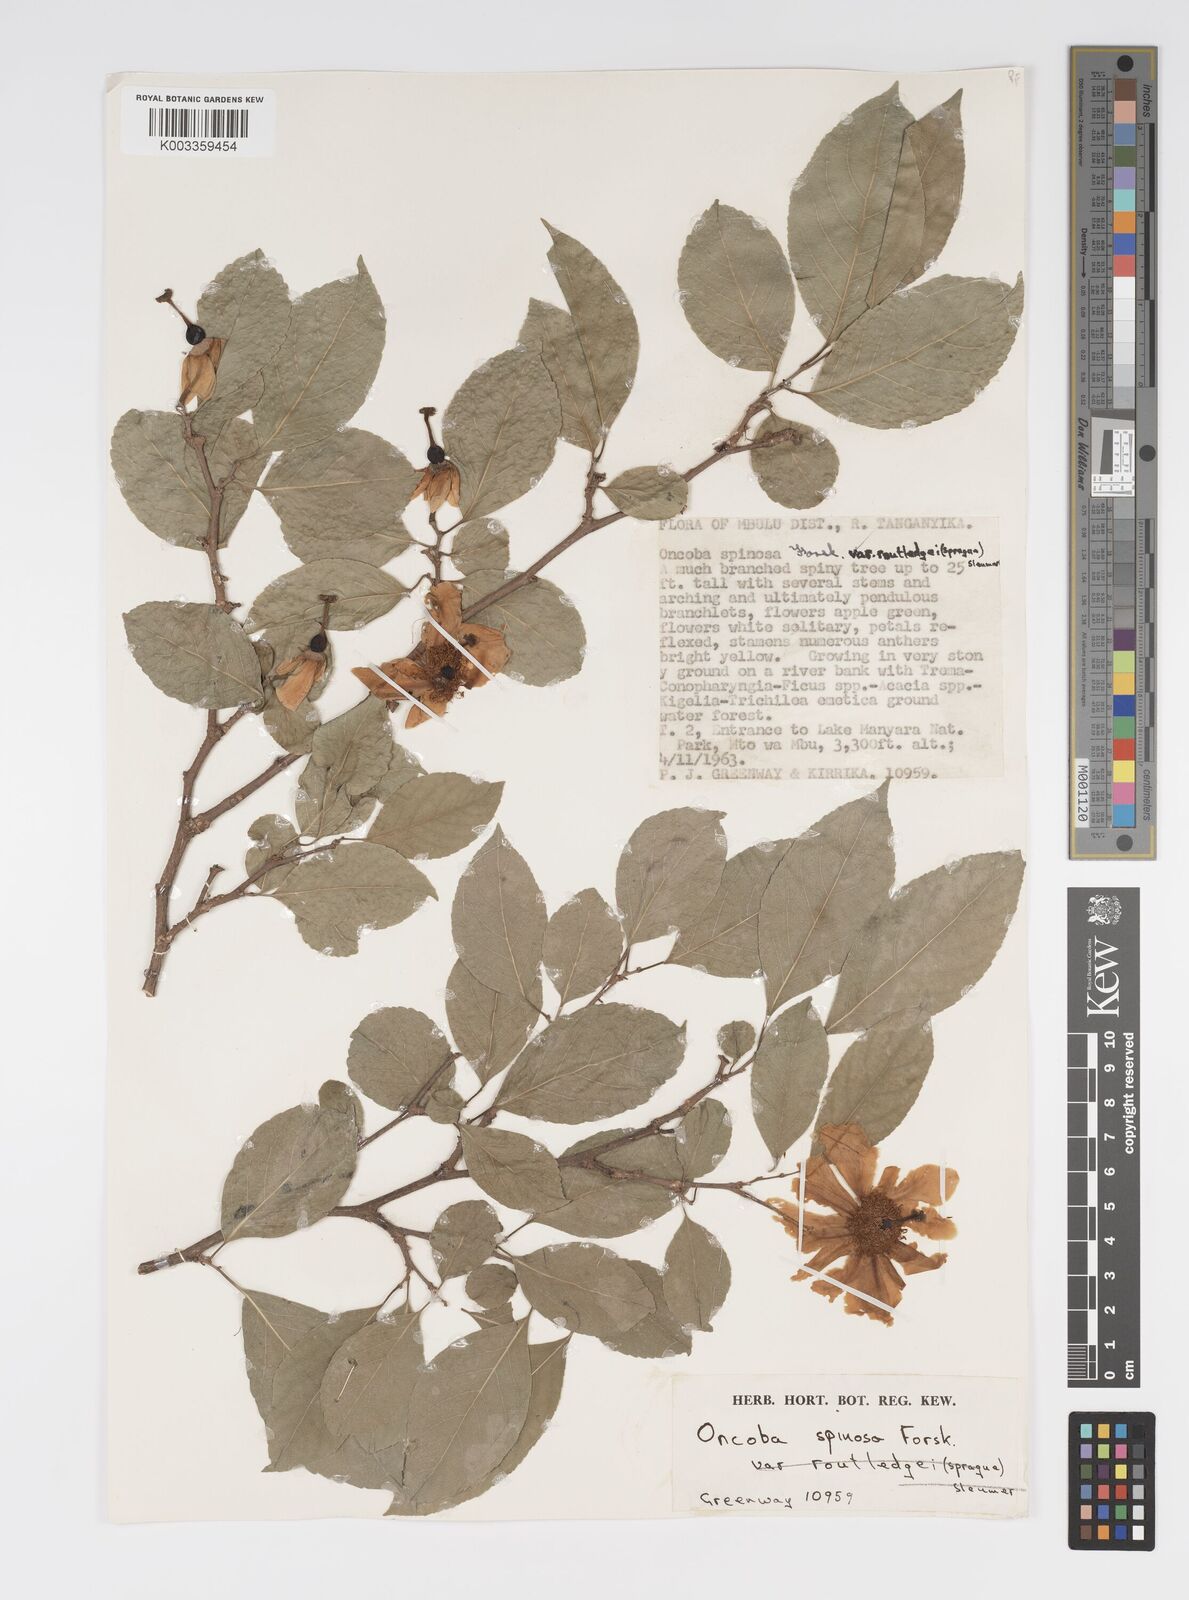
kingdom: Plantae
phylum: Tracheophyta
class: Magnoliopsida
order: Malpighiales
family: Salicaceae
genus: Oncoba
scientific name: Oncoba spinosa
